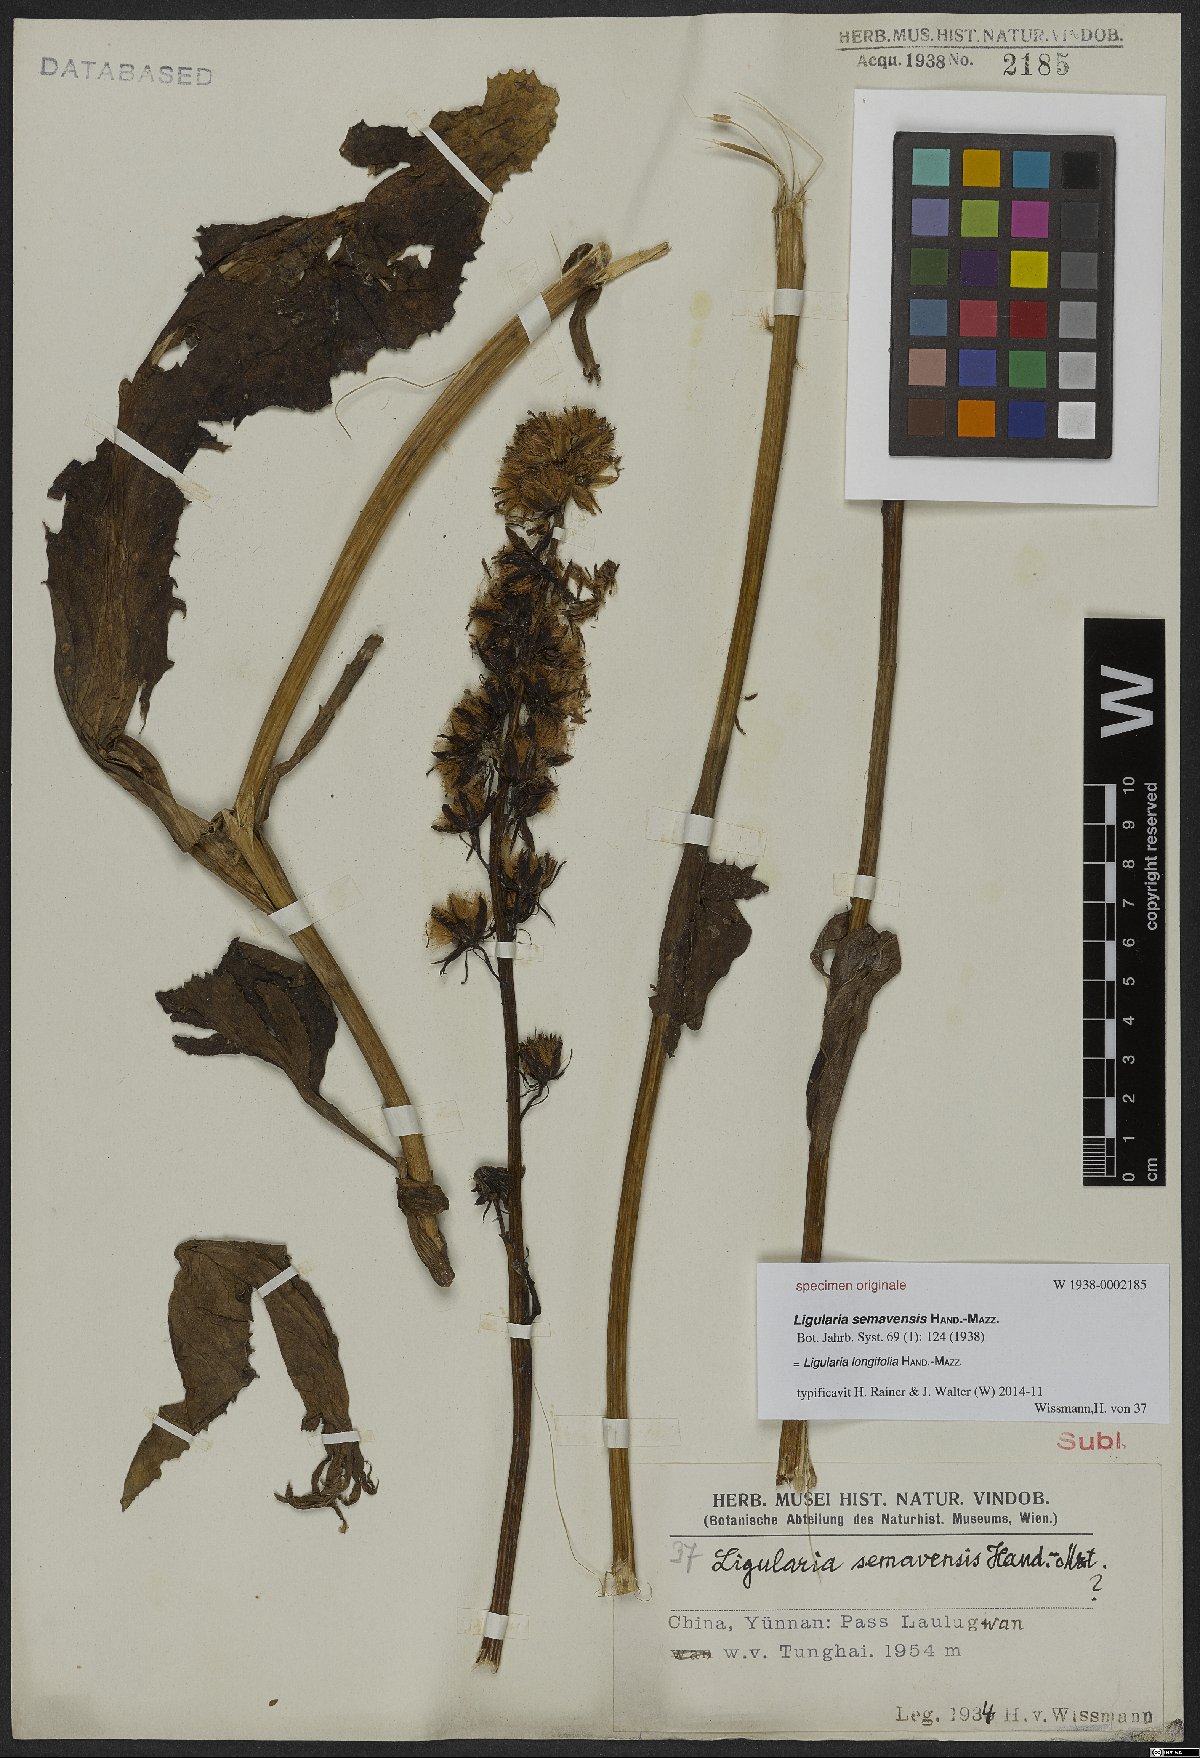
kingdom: Plantae
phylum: Tracheophyta
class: Magnoliopsida
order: Asterales
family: Asteraceae
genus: Ligularia
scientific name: Ligularia longifolia
